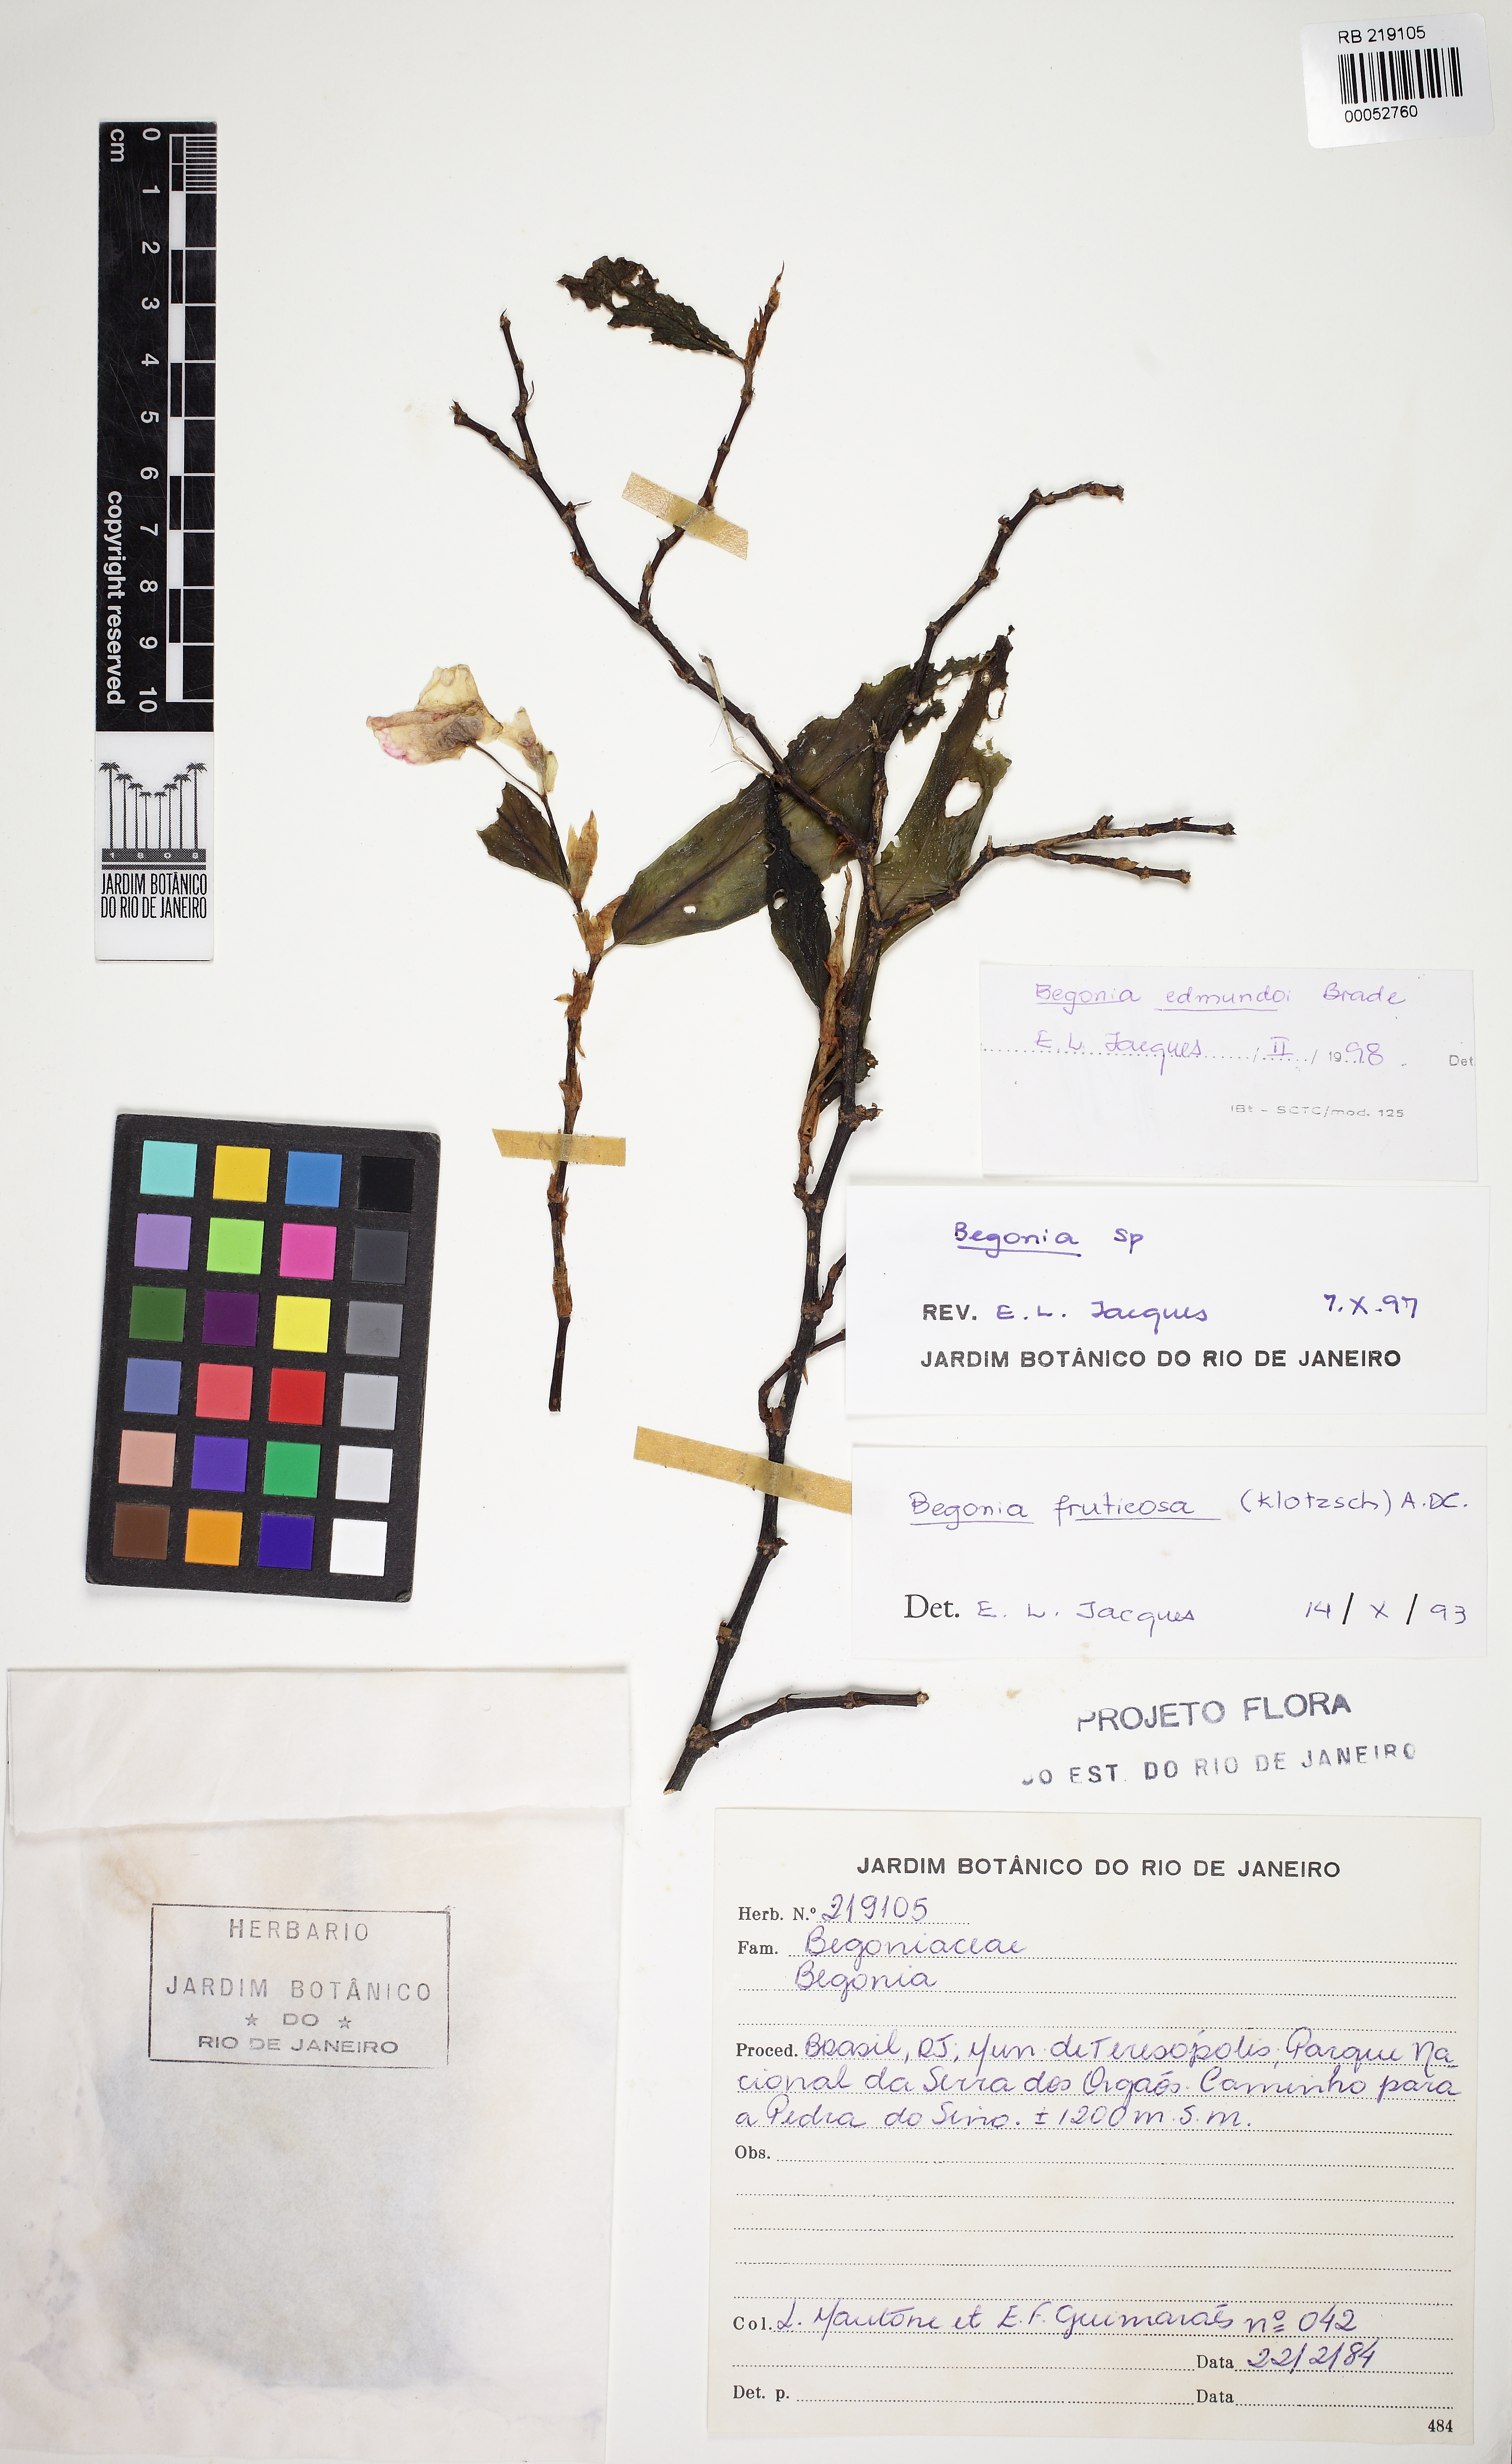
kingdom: Plantae
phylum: Tracheophyta
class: Magnoliopsida
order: Cucurbitales
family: Begoniaceae
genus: Begonia
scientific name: Begonia kunthiana
